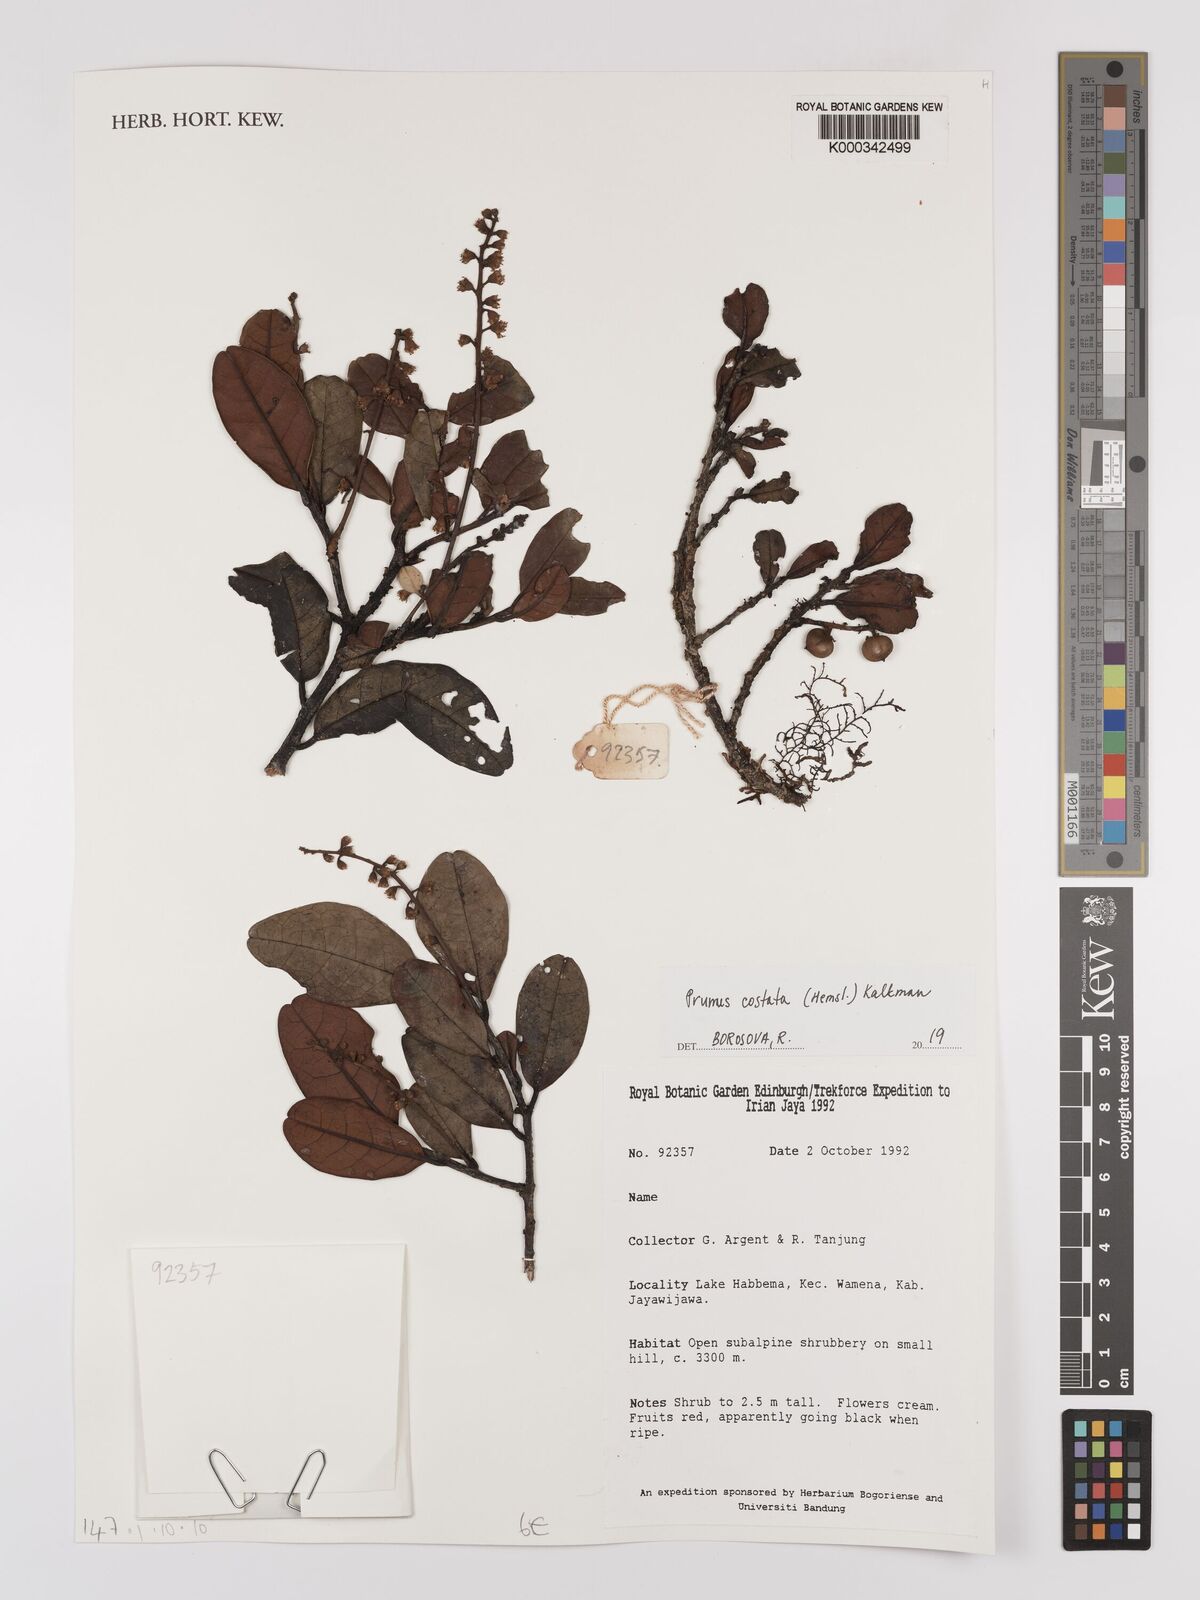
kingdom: Plantae
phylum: Tracheophyta
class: Magnoliopsida
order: Rosales
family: Rosaceae
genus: Prunus
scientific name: Prunus costata
